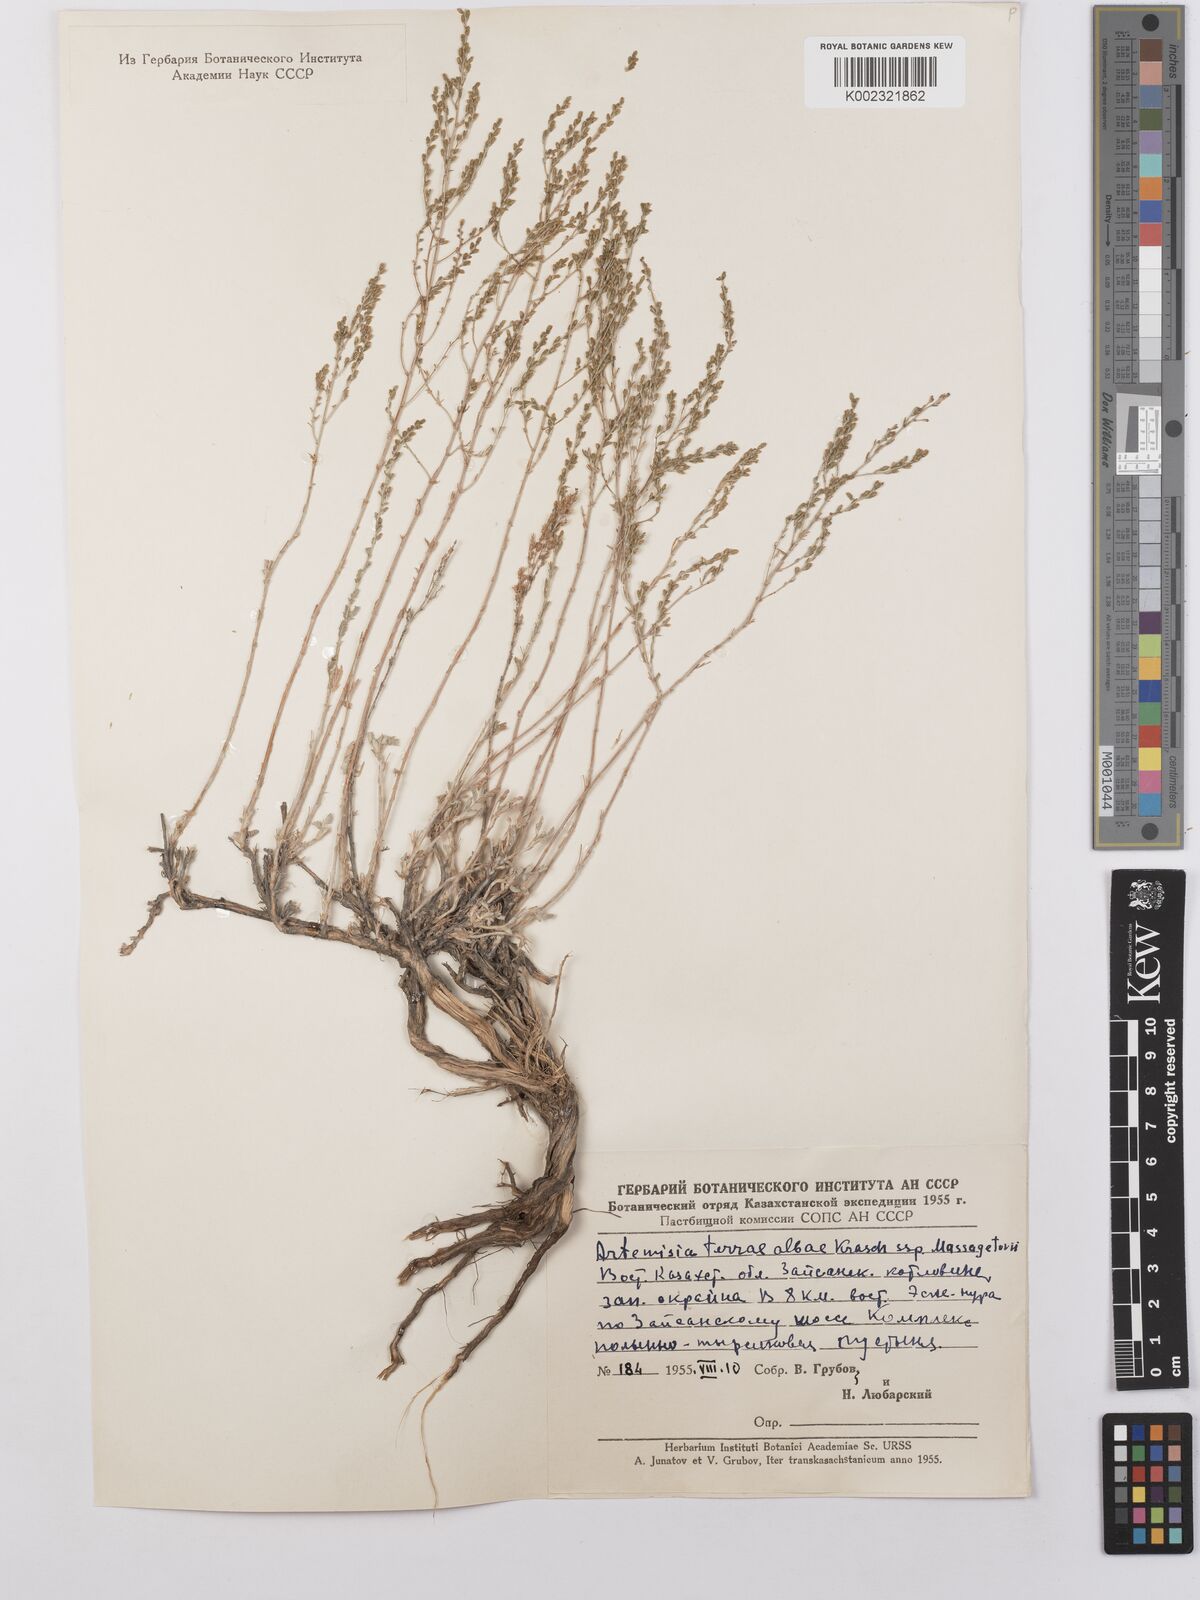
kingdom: Plantae
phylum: Tracheophyta
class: Magnoliopsida
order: Asterales
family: Asteraceae
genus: Artemisia
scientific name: Artemisia terrae-albae
